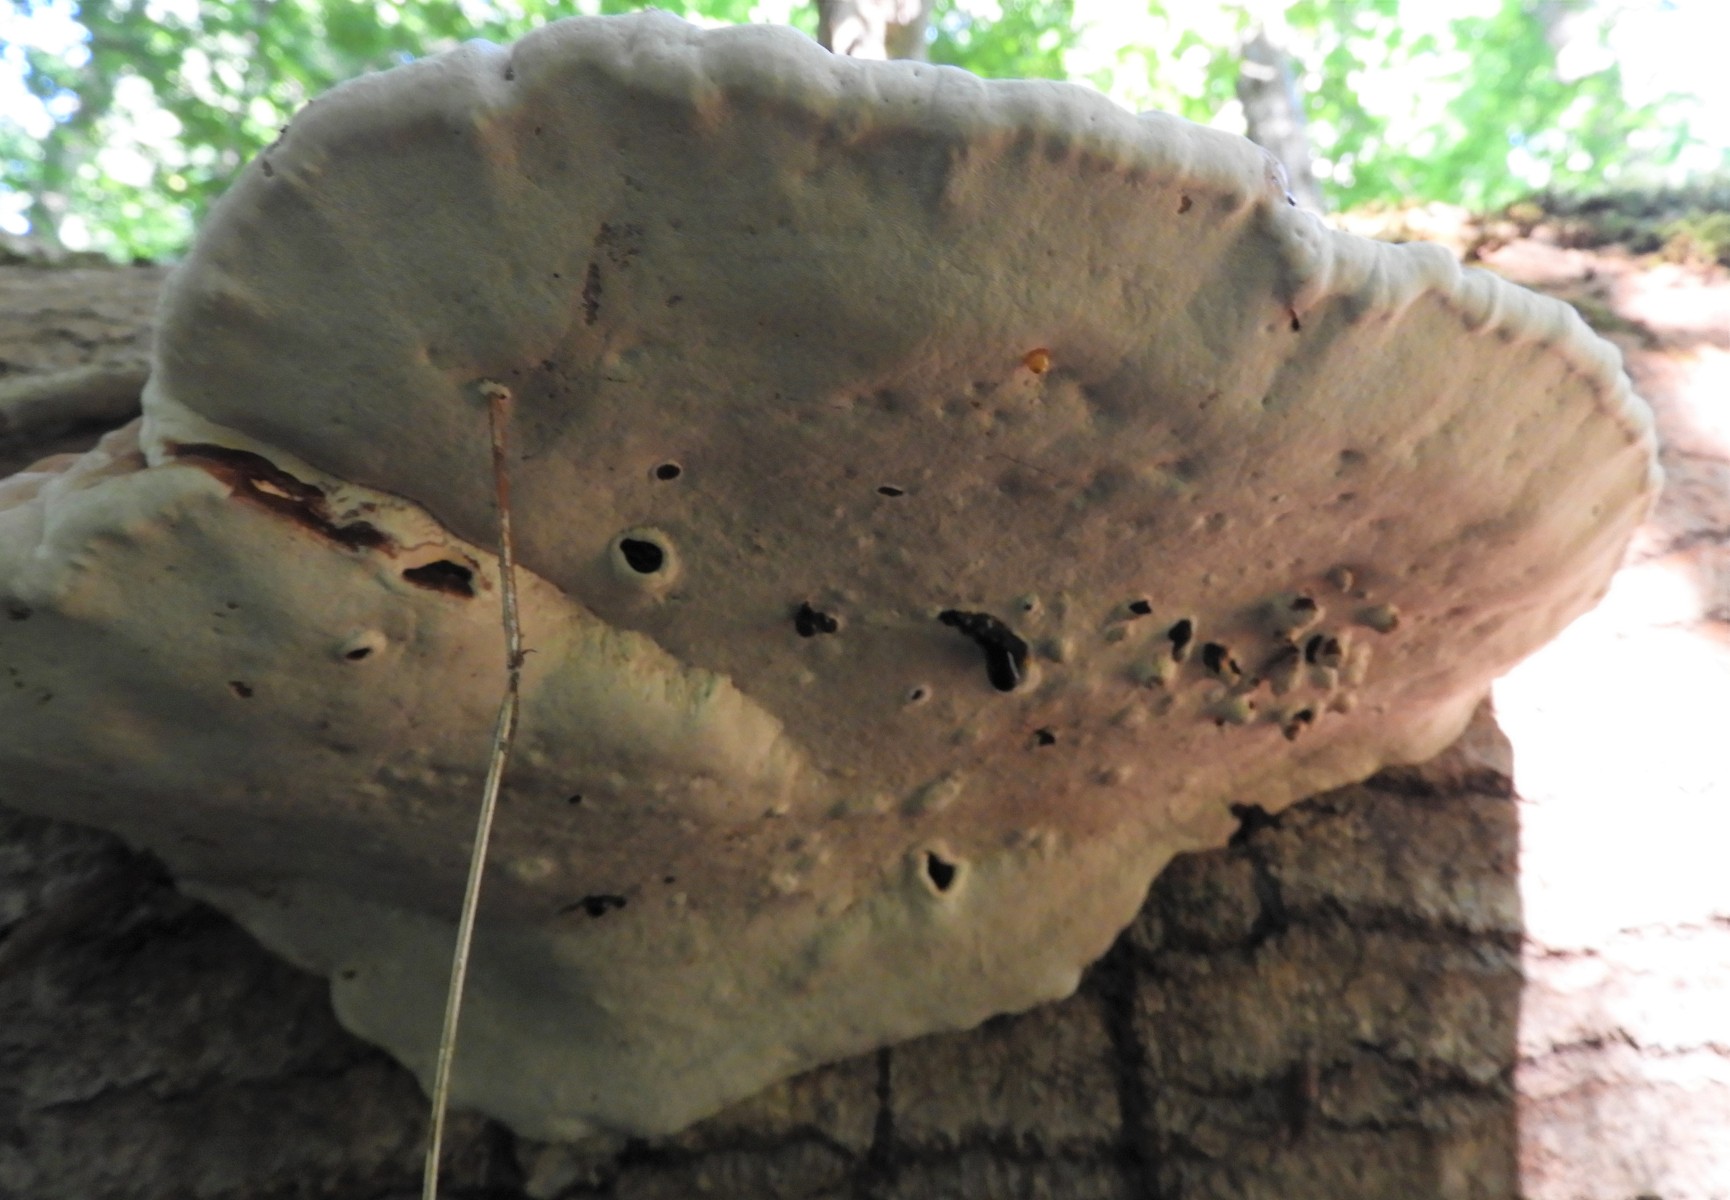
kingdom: Fungi
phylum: Basidiomycota
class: Agaricomycetes
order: Polyporales
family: Polyporaceae
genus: Ganoderma
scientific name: Ganoderma applanatum
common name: flad lakporesvamp
